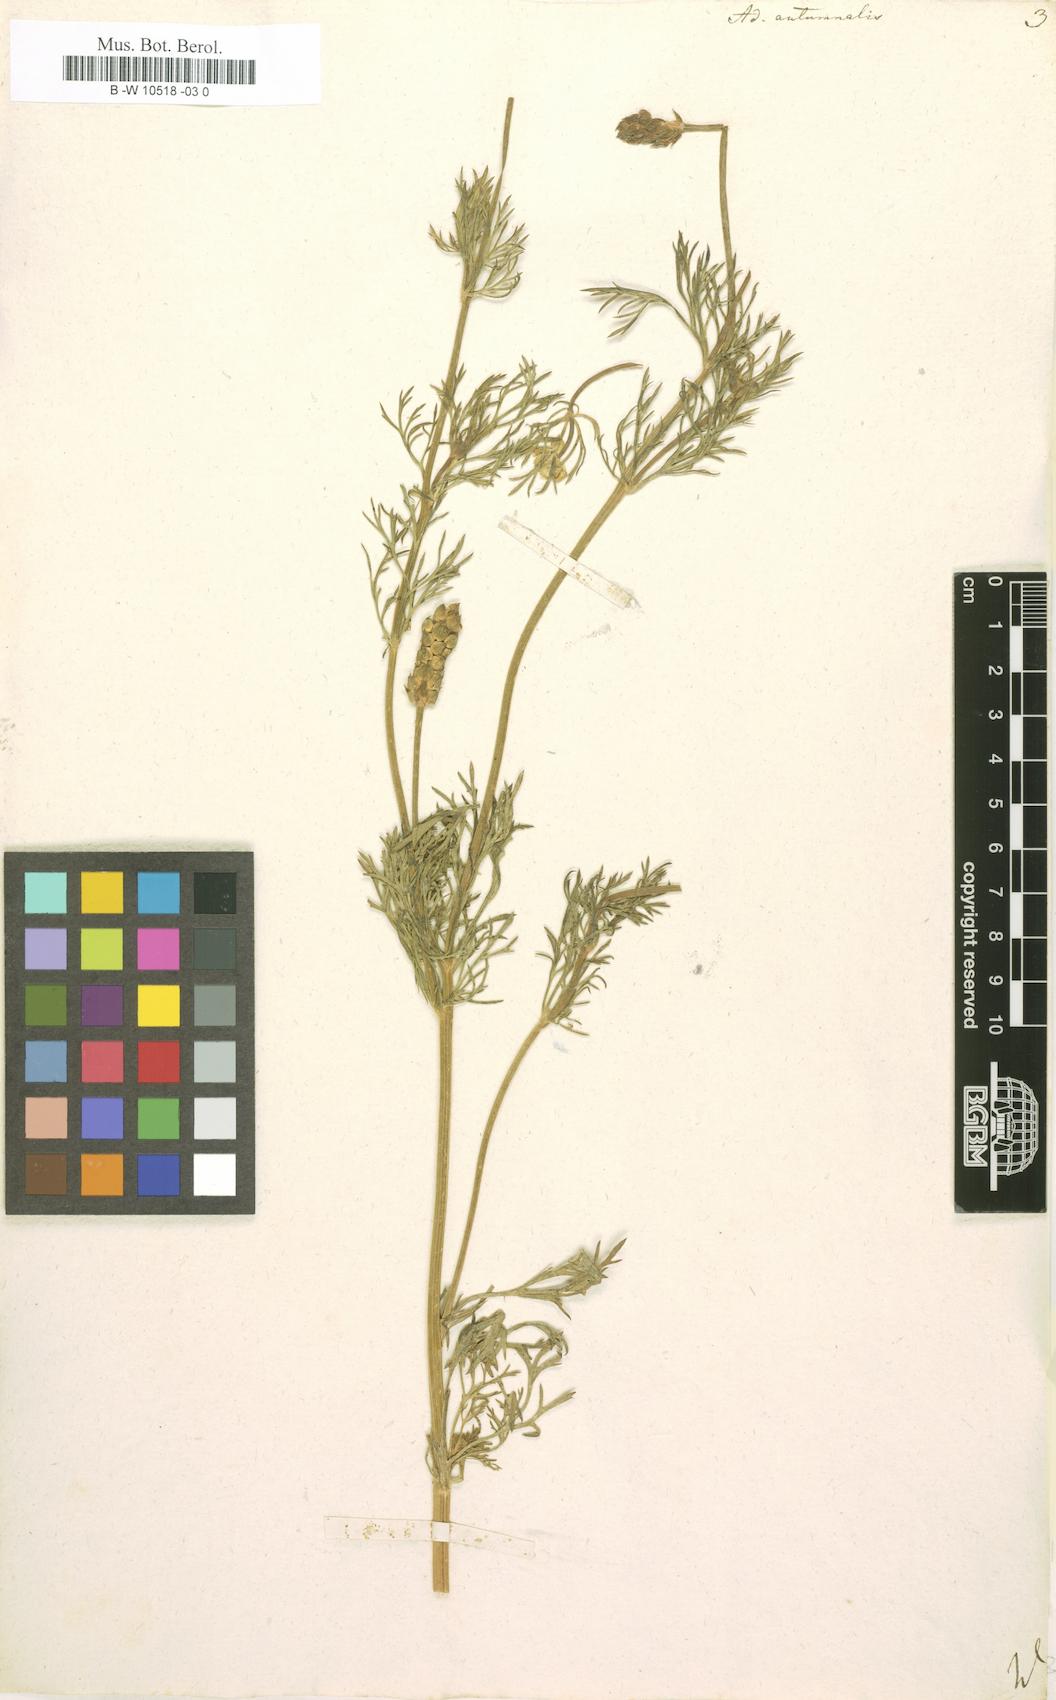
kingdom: Plantae
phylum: Tracheophyta
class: Magnoliopsida
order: Ranunculales
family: Ranunculaceae
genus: Adonis
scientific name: Adonis annua
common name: Pheasant's-eye
